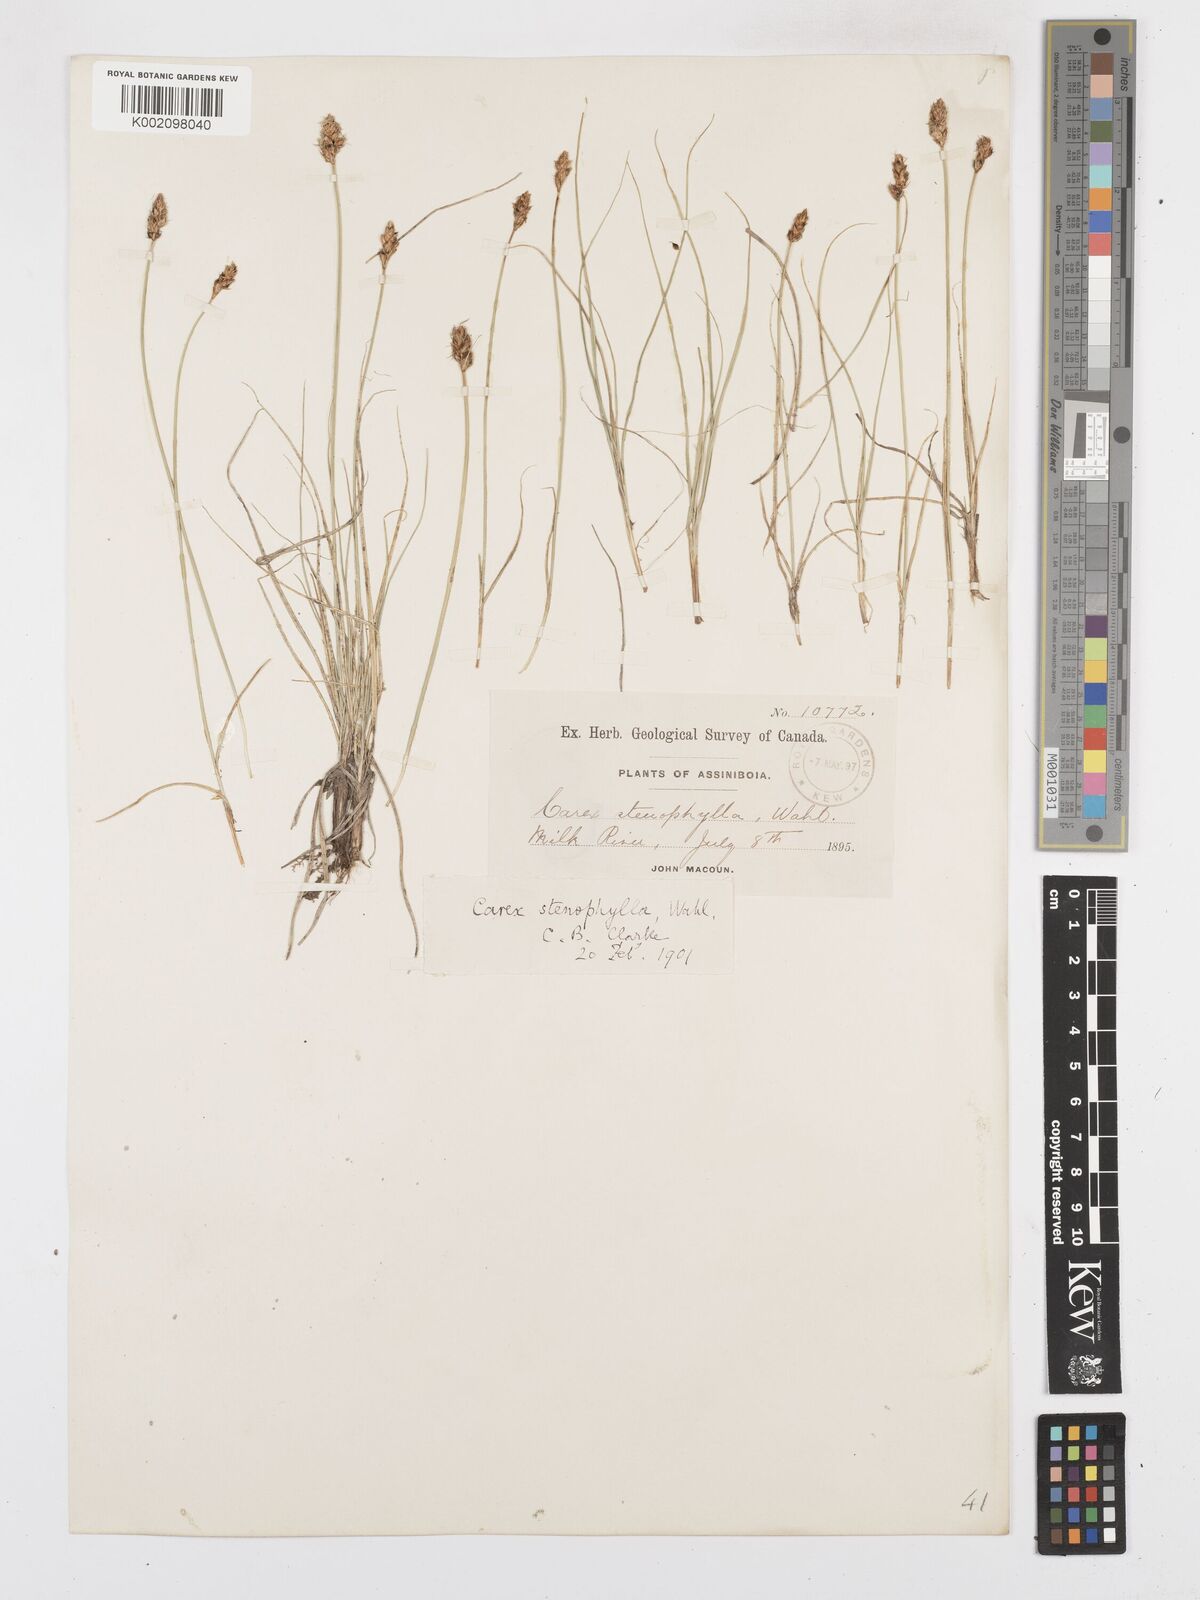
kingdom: Plantae
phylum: Tracheophyta
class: Liliopsida
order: Poales
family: Cyperaceae
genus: Carex
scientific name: Carex duriuscula
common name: Involute-leaved sedge
